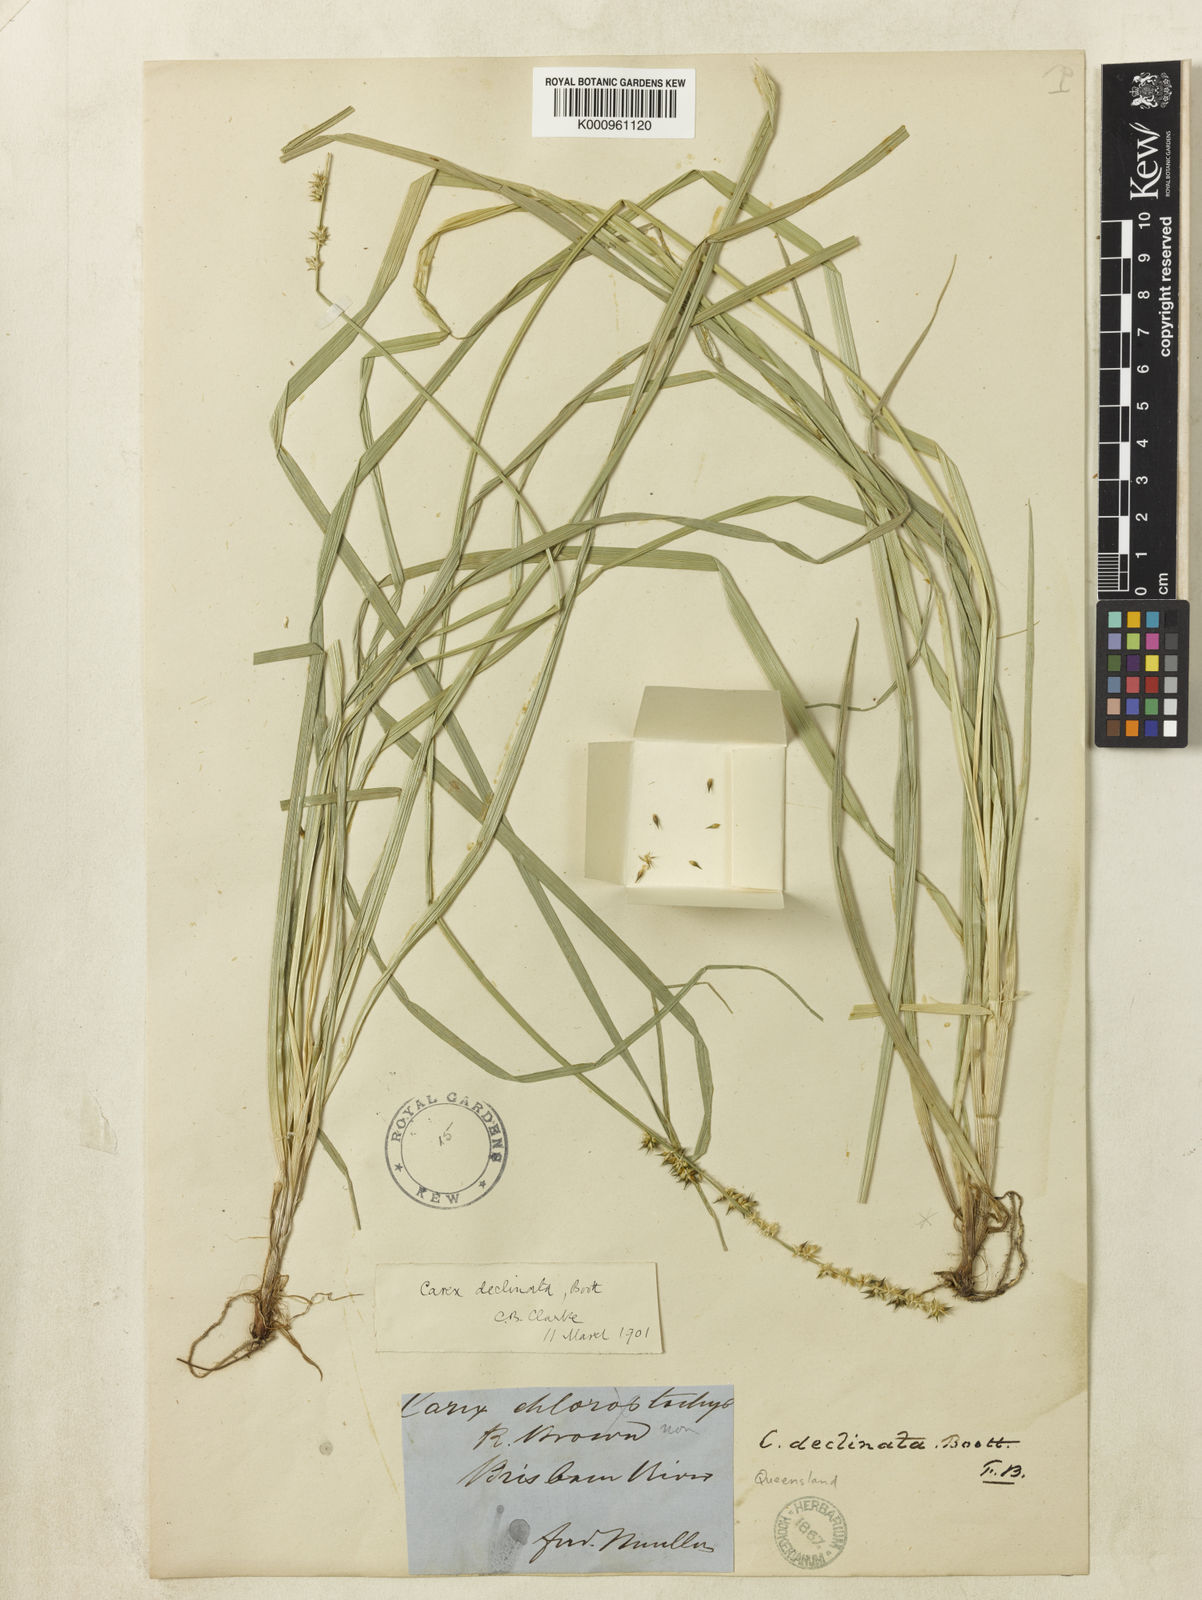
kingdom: Plantae
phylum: Tracheophyta
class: Liliopsida
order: Poales
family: Cyperaceae
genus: Carex
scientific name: Carex declinata
